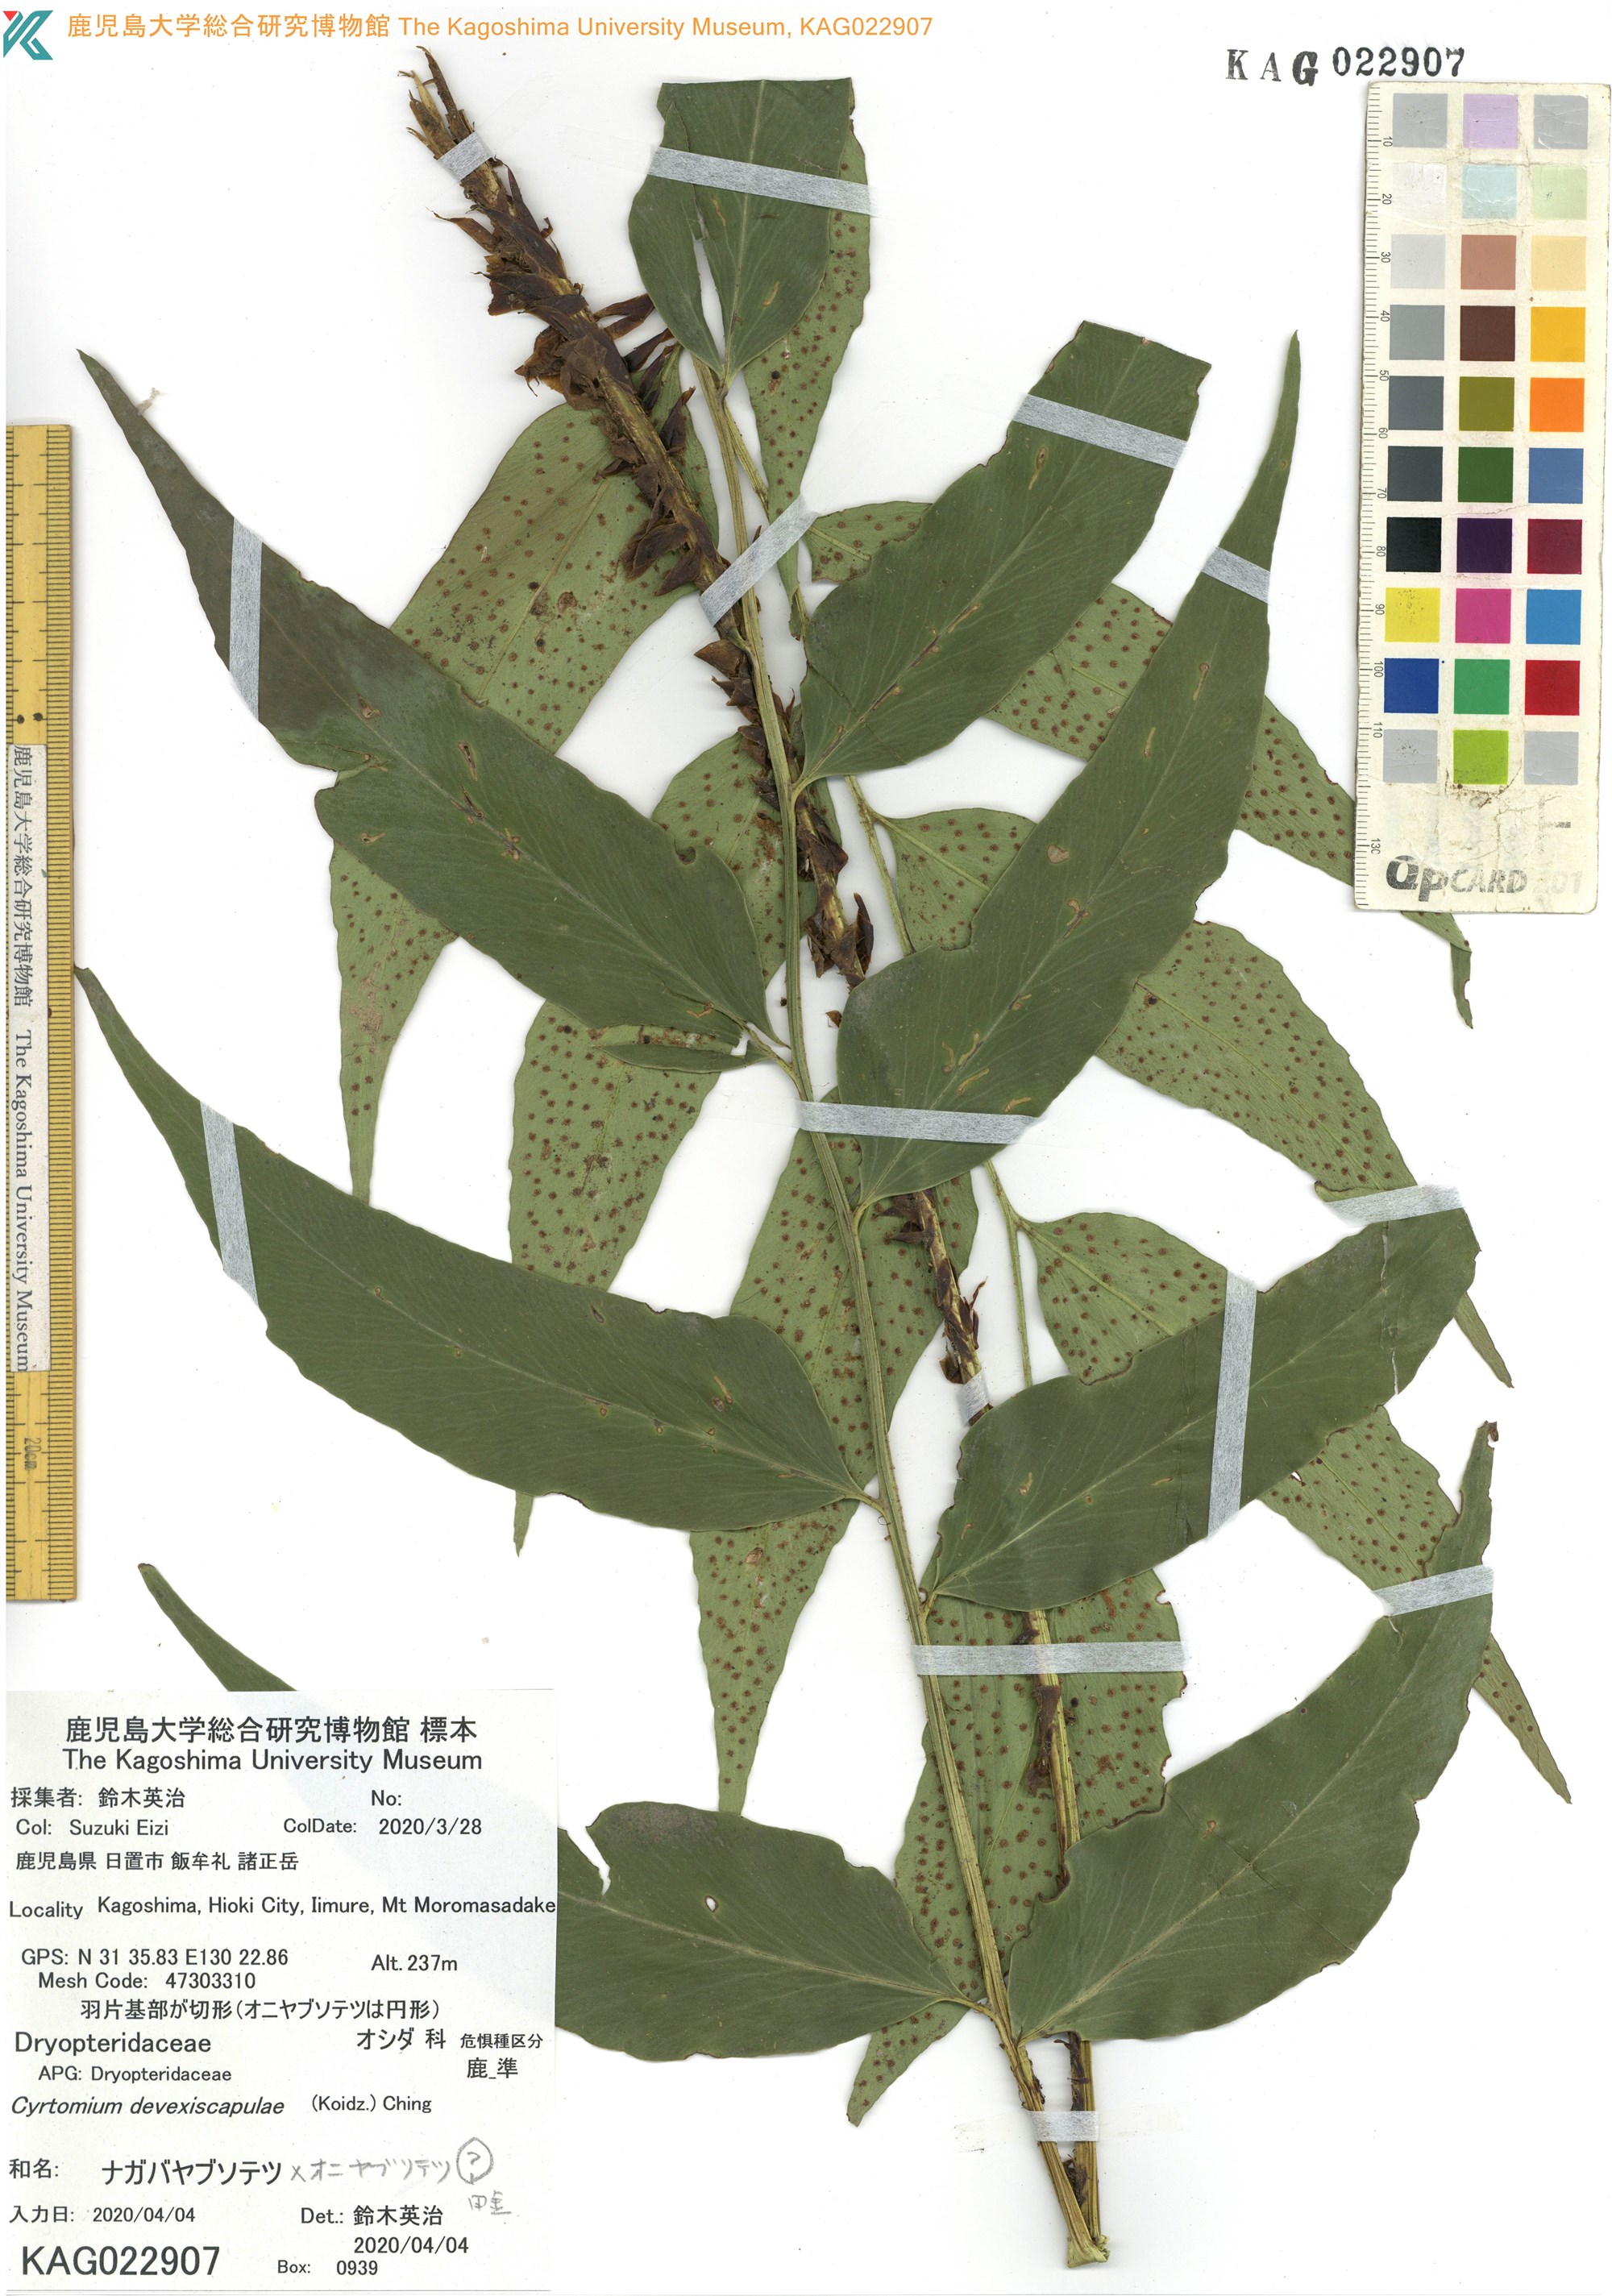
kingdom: Plantae
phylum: Tracheophyta
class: Polypodiopsida
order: Polypodiales
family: Dryopteridaceae
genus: Cyrtomium
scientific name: Cyrtomium devexiscapulae
